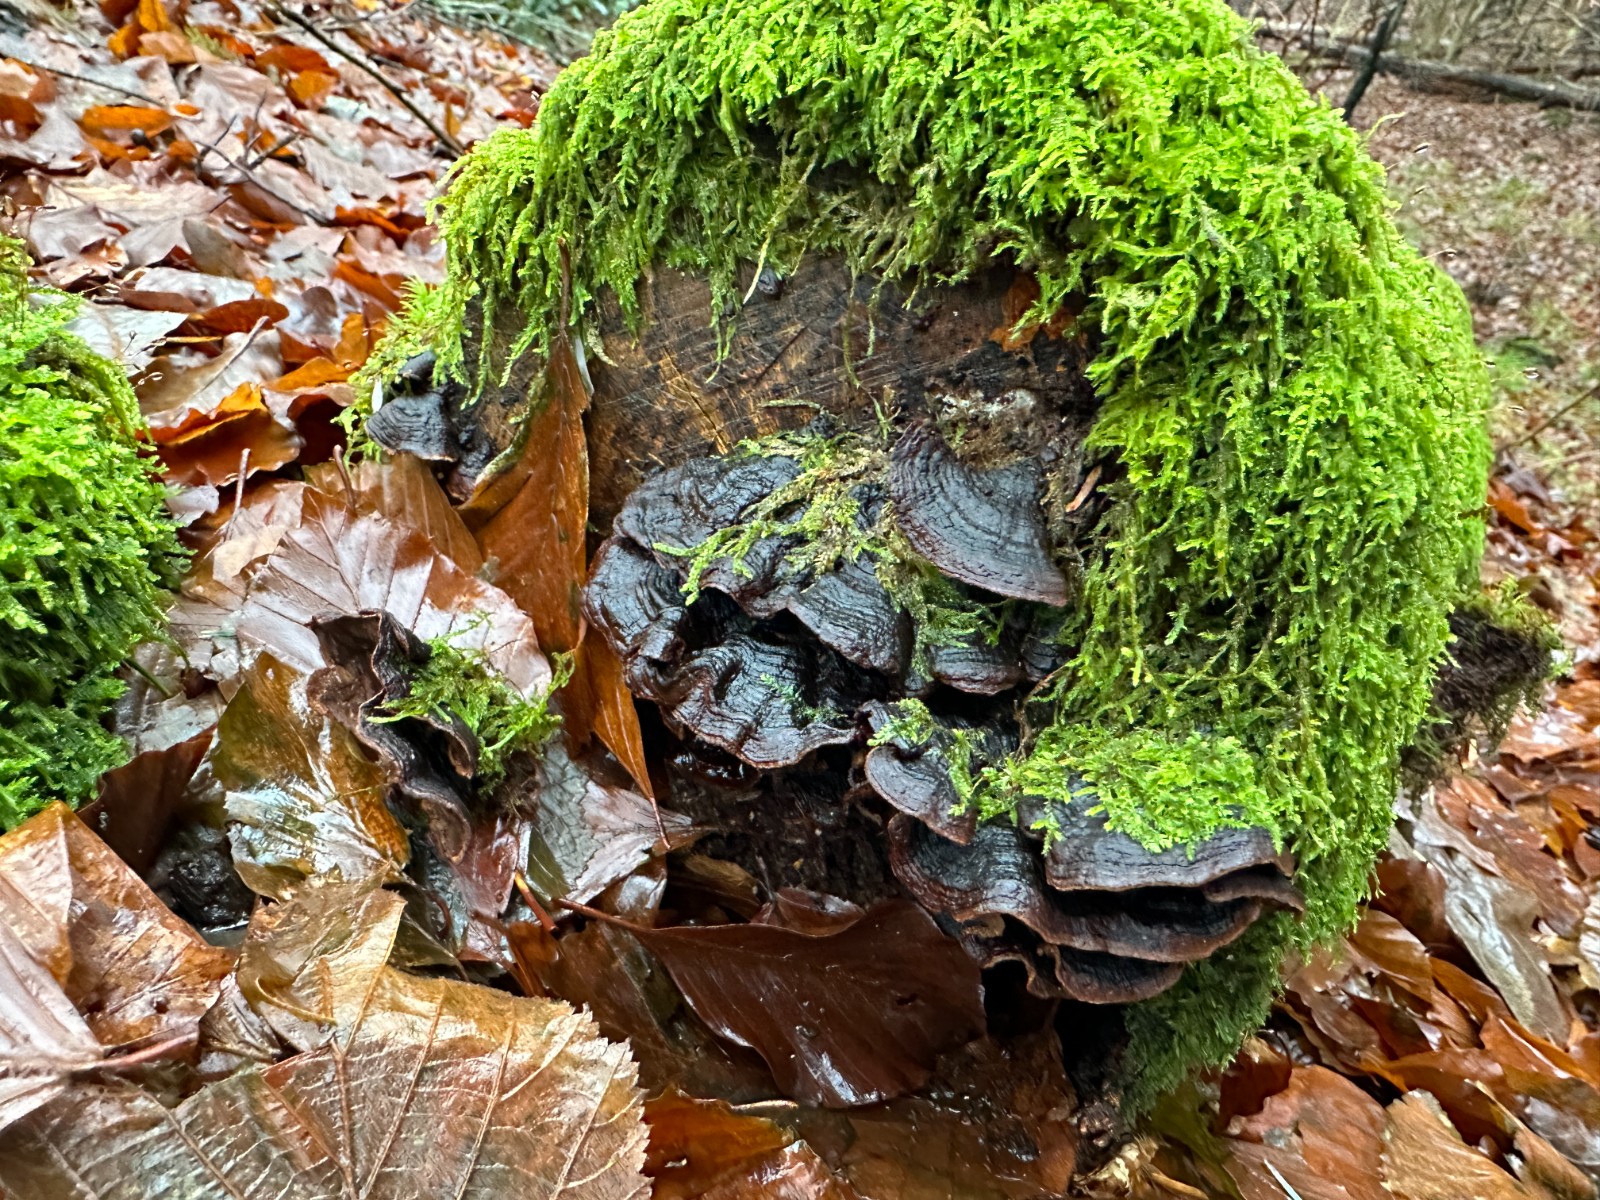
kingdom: Fungi
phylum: Basidiomycota
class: Agaricomycetes
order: Hymenochaetales
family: Hymenochaetaceae
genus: Hymenochaete
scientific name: Hymenochaete rubiginosa
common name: stiv ruslædersvamp
